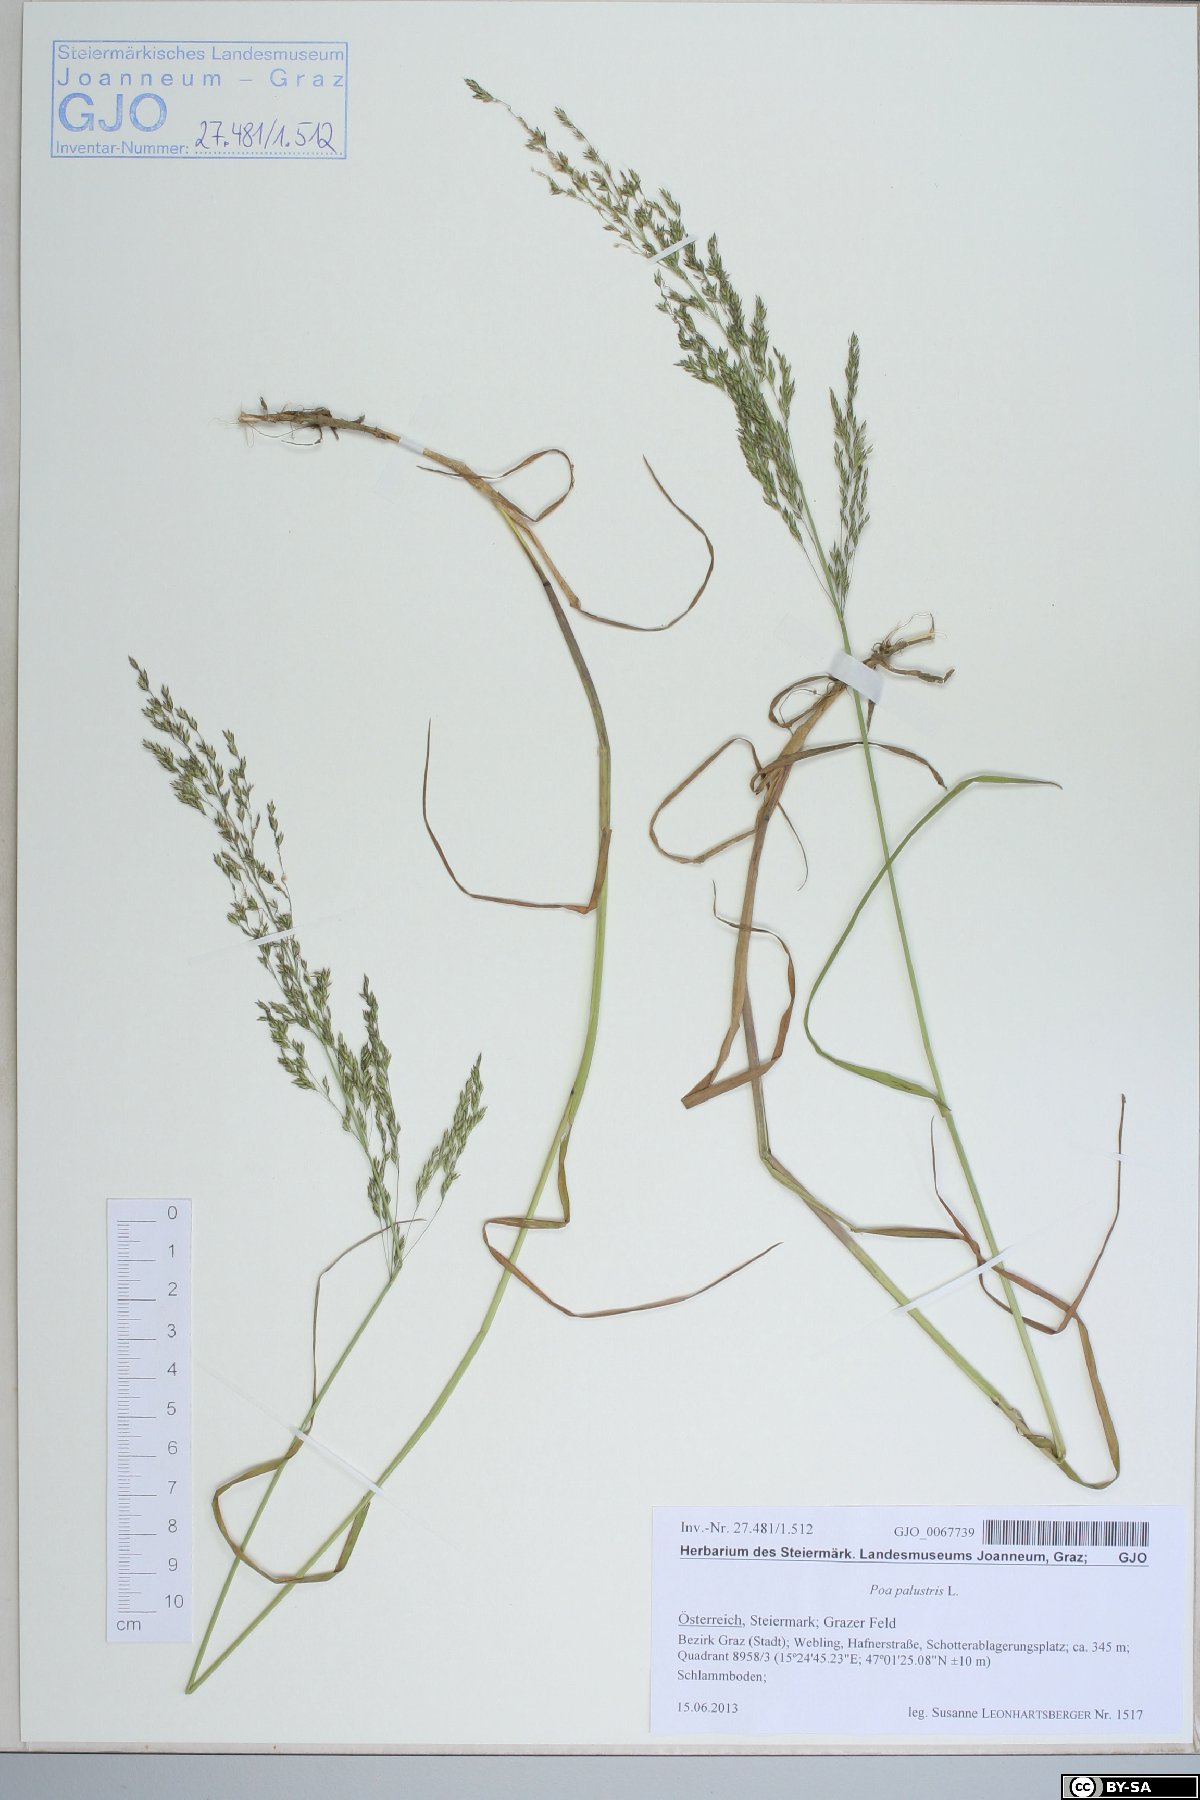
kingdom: Plantae
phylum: Tracheophyta
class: Liliopsida
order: Poales
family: Poaceae
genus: Poa
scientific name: Poa palustris
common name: Swamp meadow-grass
